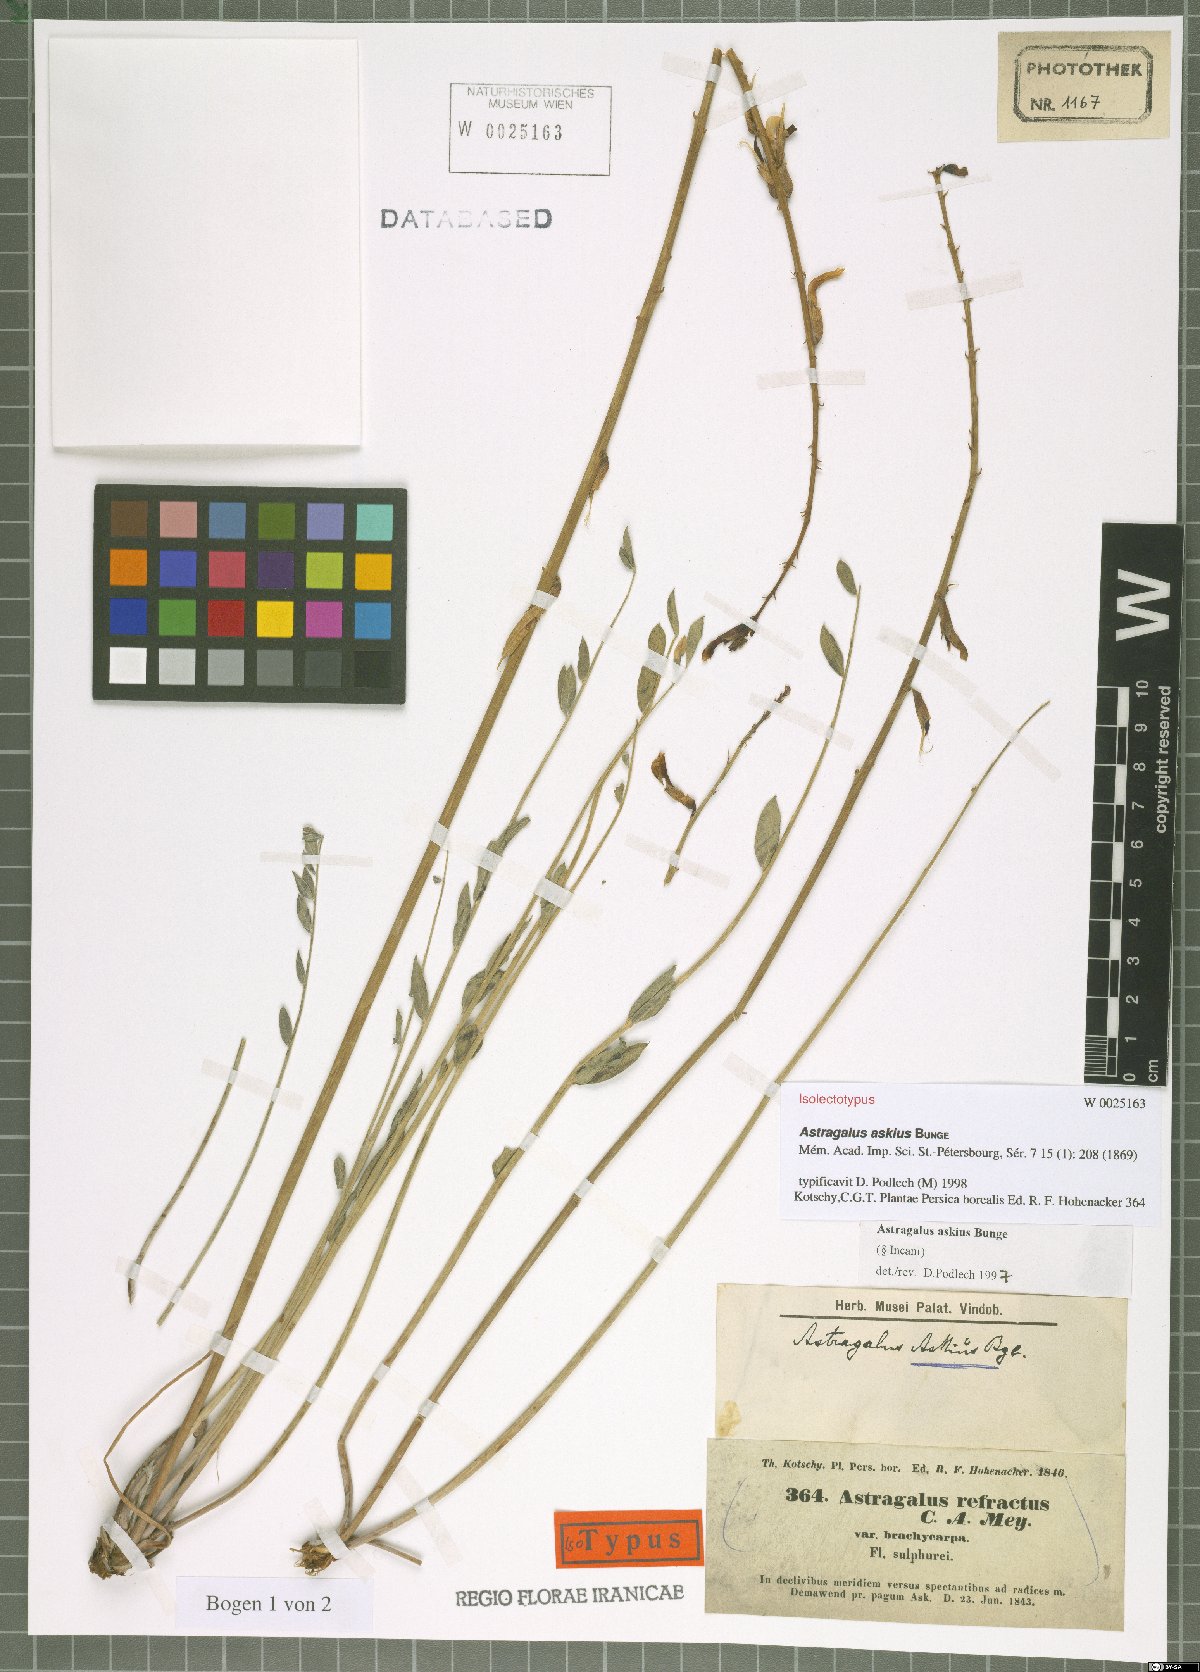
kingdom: Plantae
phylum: Tracheophyta
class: Magnoliopsida
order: Fabales
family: Fabaceae
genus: Astragalus
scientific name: Astragalus askius
